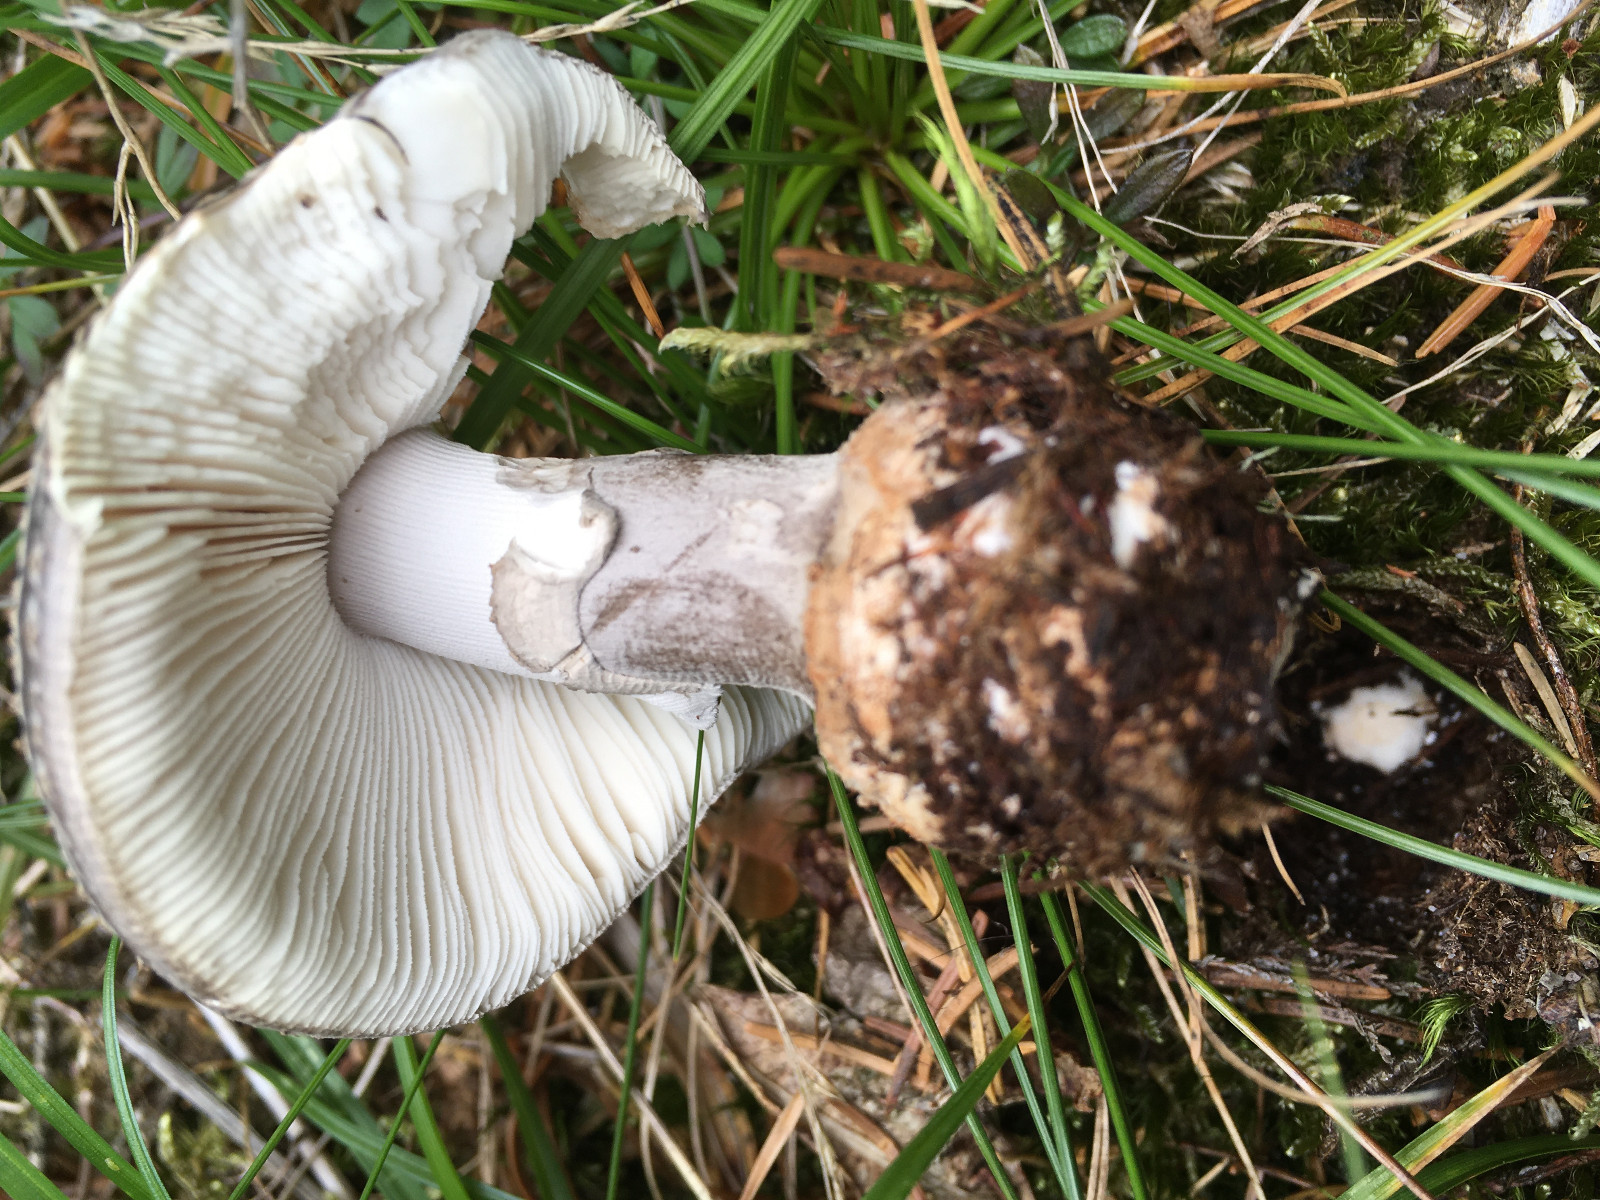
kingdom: Fungi
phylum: Basidiomycota
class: Agaricomycetes
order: Agaricales
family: Amanitaceae
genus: Amanita
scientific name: Amanita
